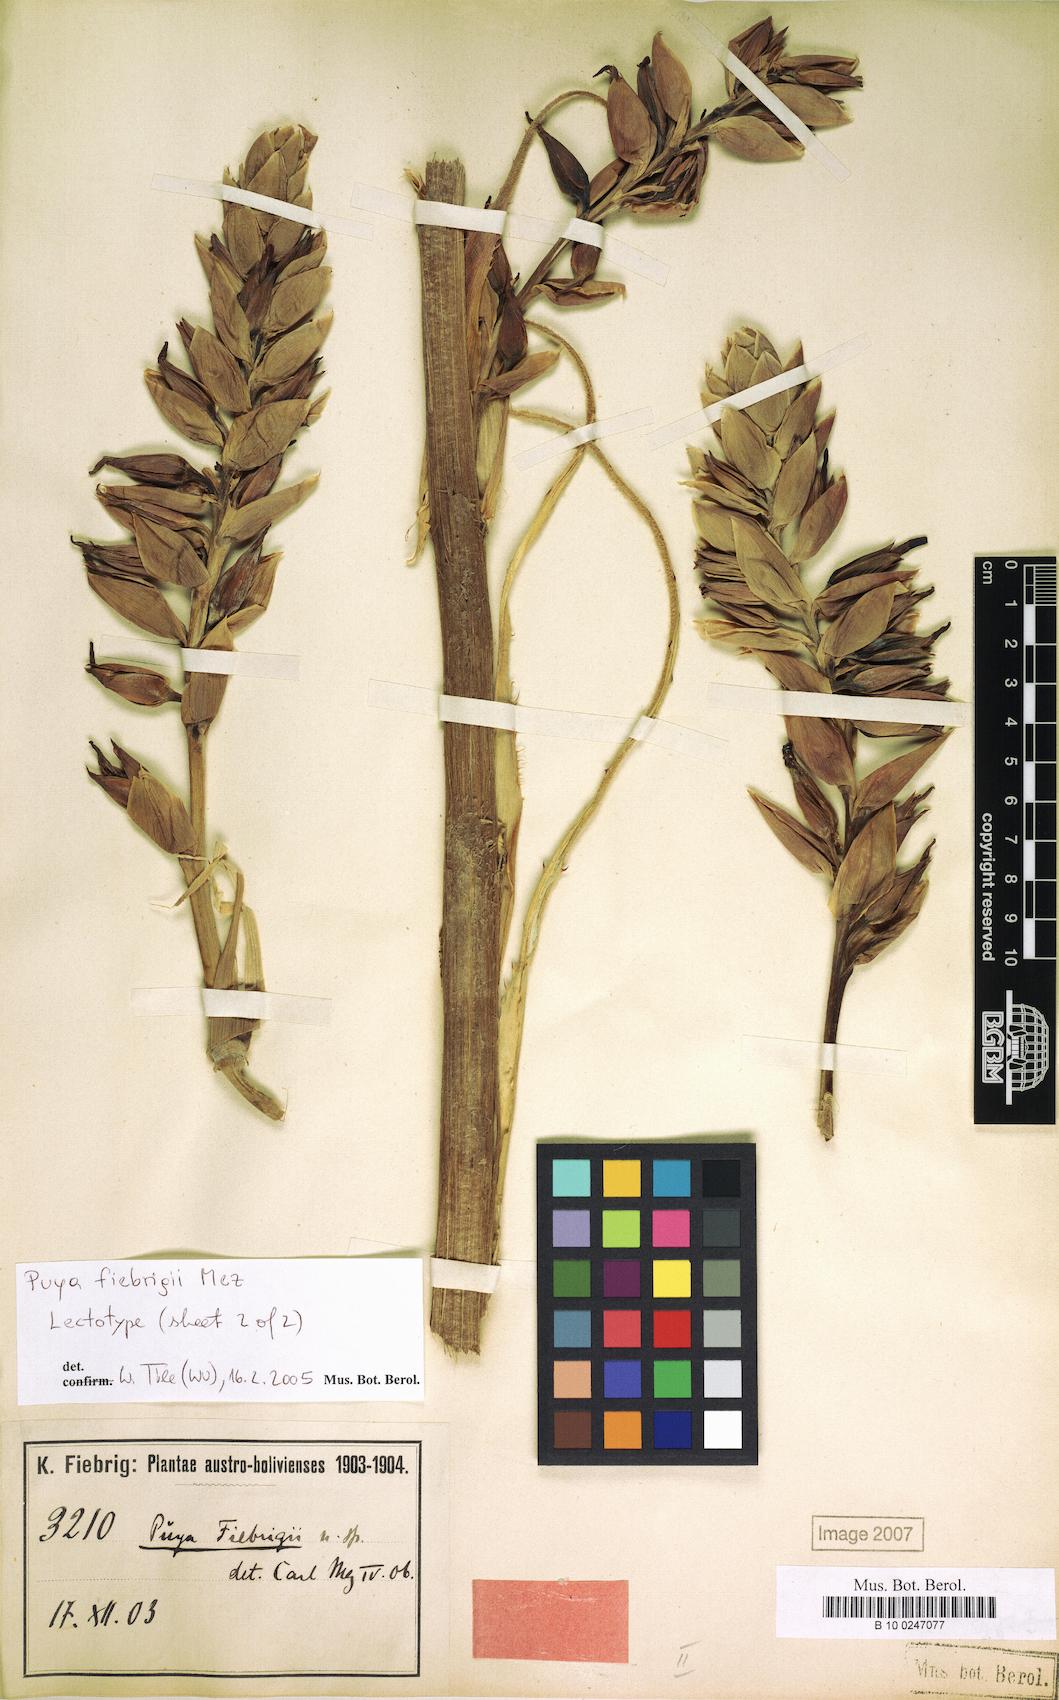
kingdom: Plantae
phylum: Tracheophyta
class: Liliopsida
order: Poales
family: Bromeliaceae
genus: Puya
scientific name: Puya fiebrigii
